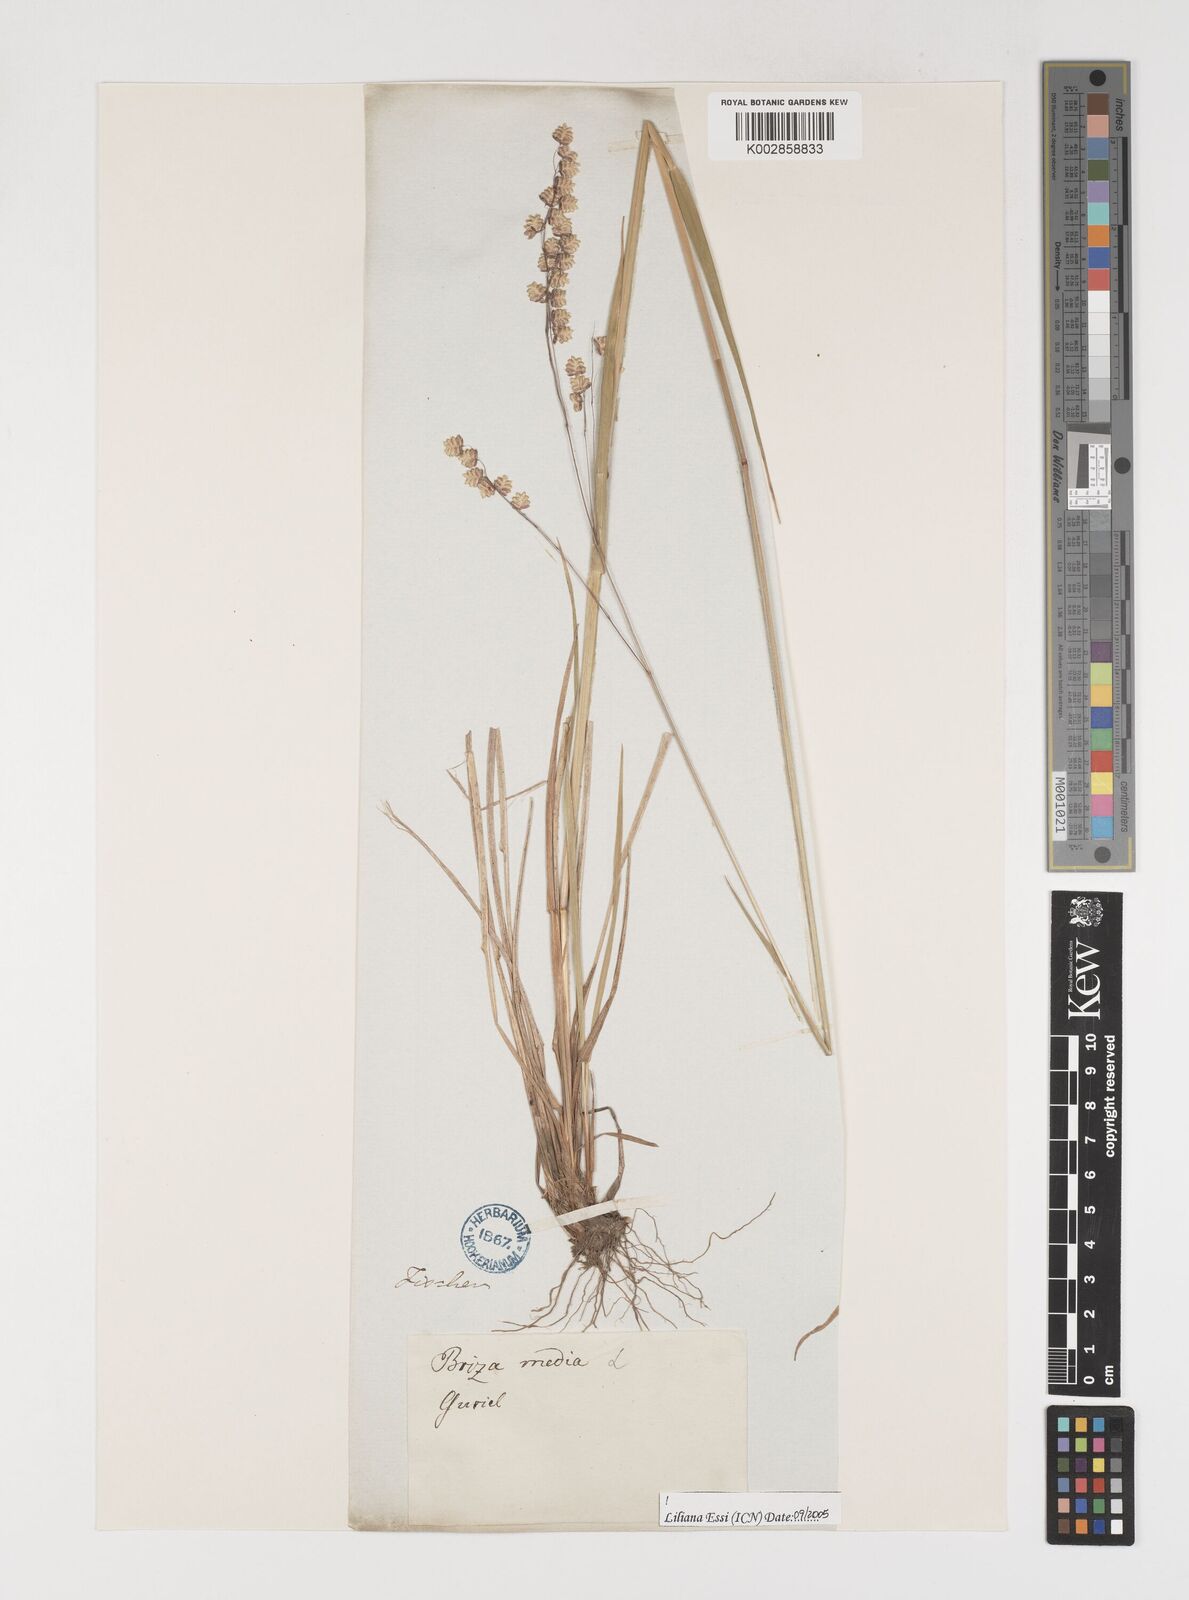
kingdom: Plantae
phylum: Tracheophyta
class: Liliopsida
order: Poales
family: Poaceae
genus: Briza
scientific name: Briza media
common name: Quaking grass
